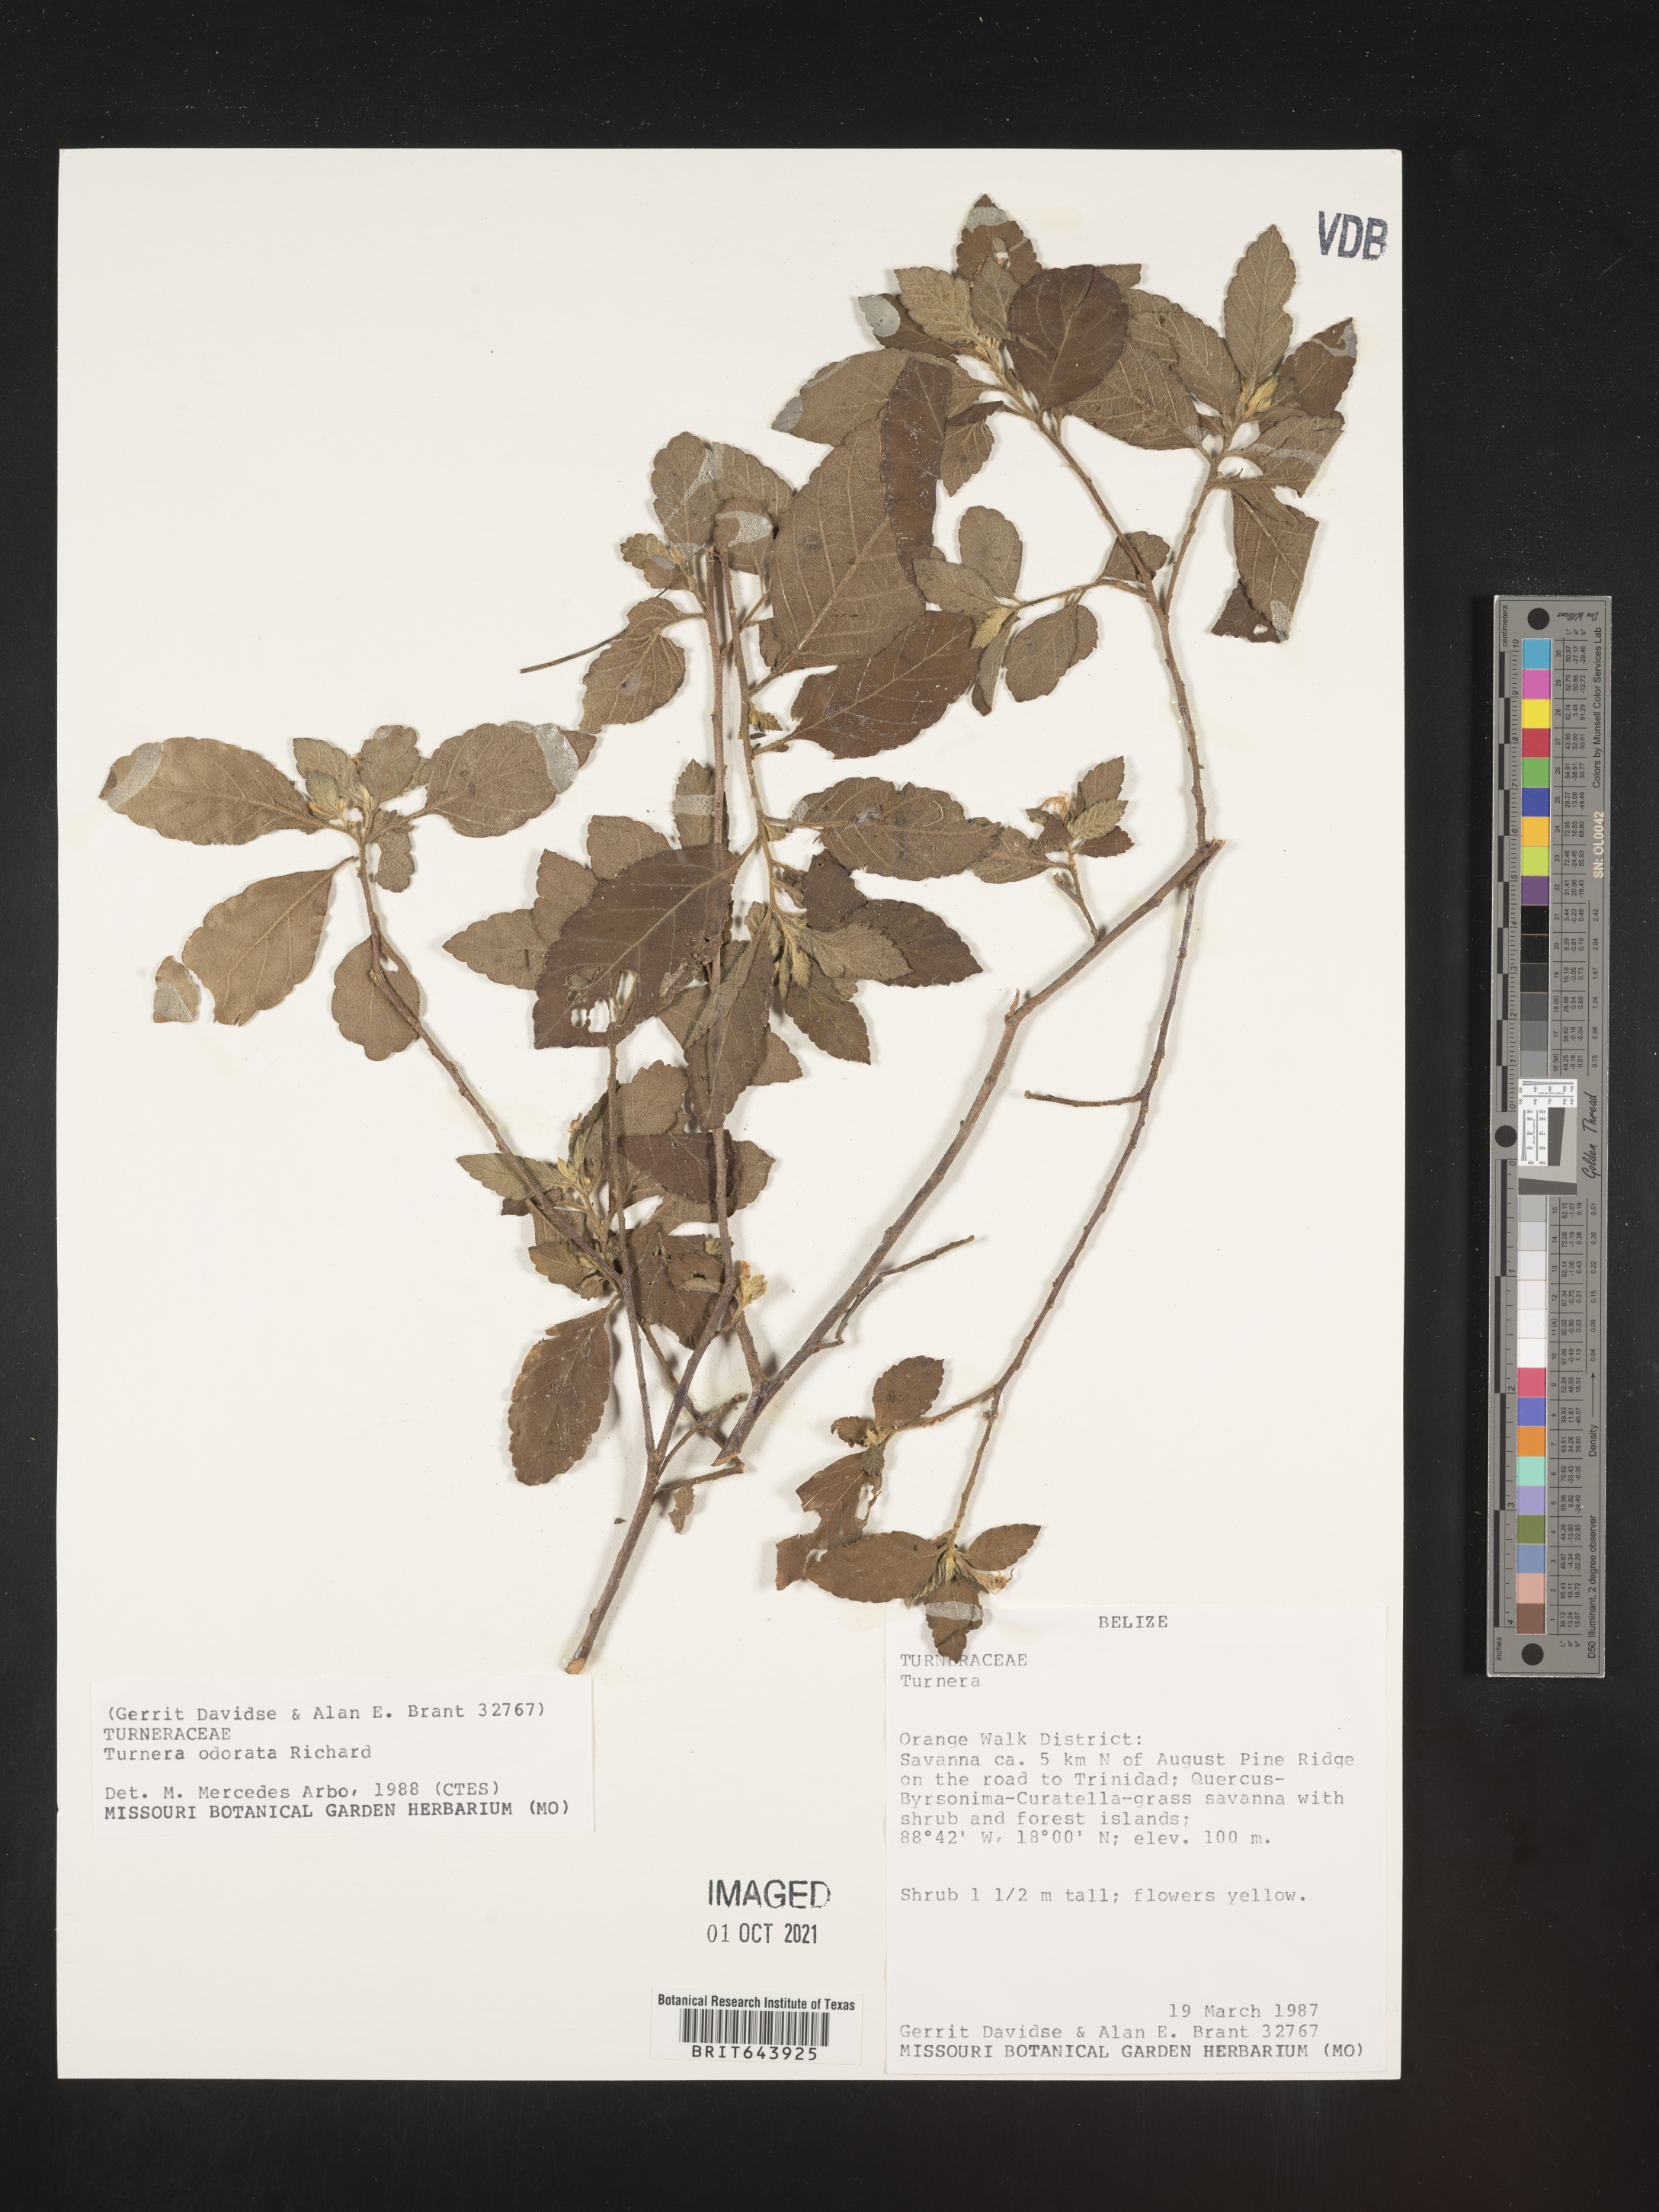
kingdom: Plantae
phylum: Tracheophyta
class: Magnoliopsida
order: Malpighiales
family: Turneraceae
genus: Turnera
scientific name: Turnera
